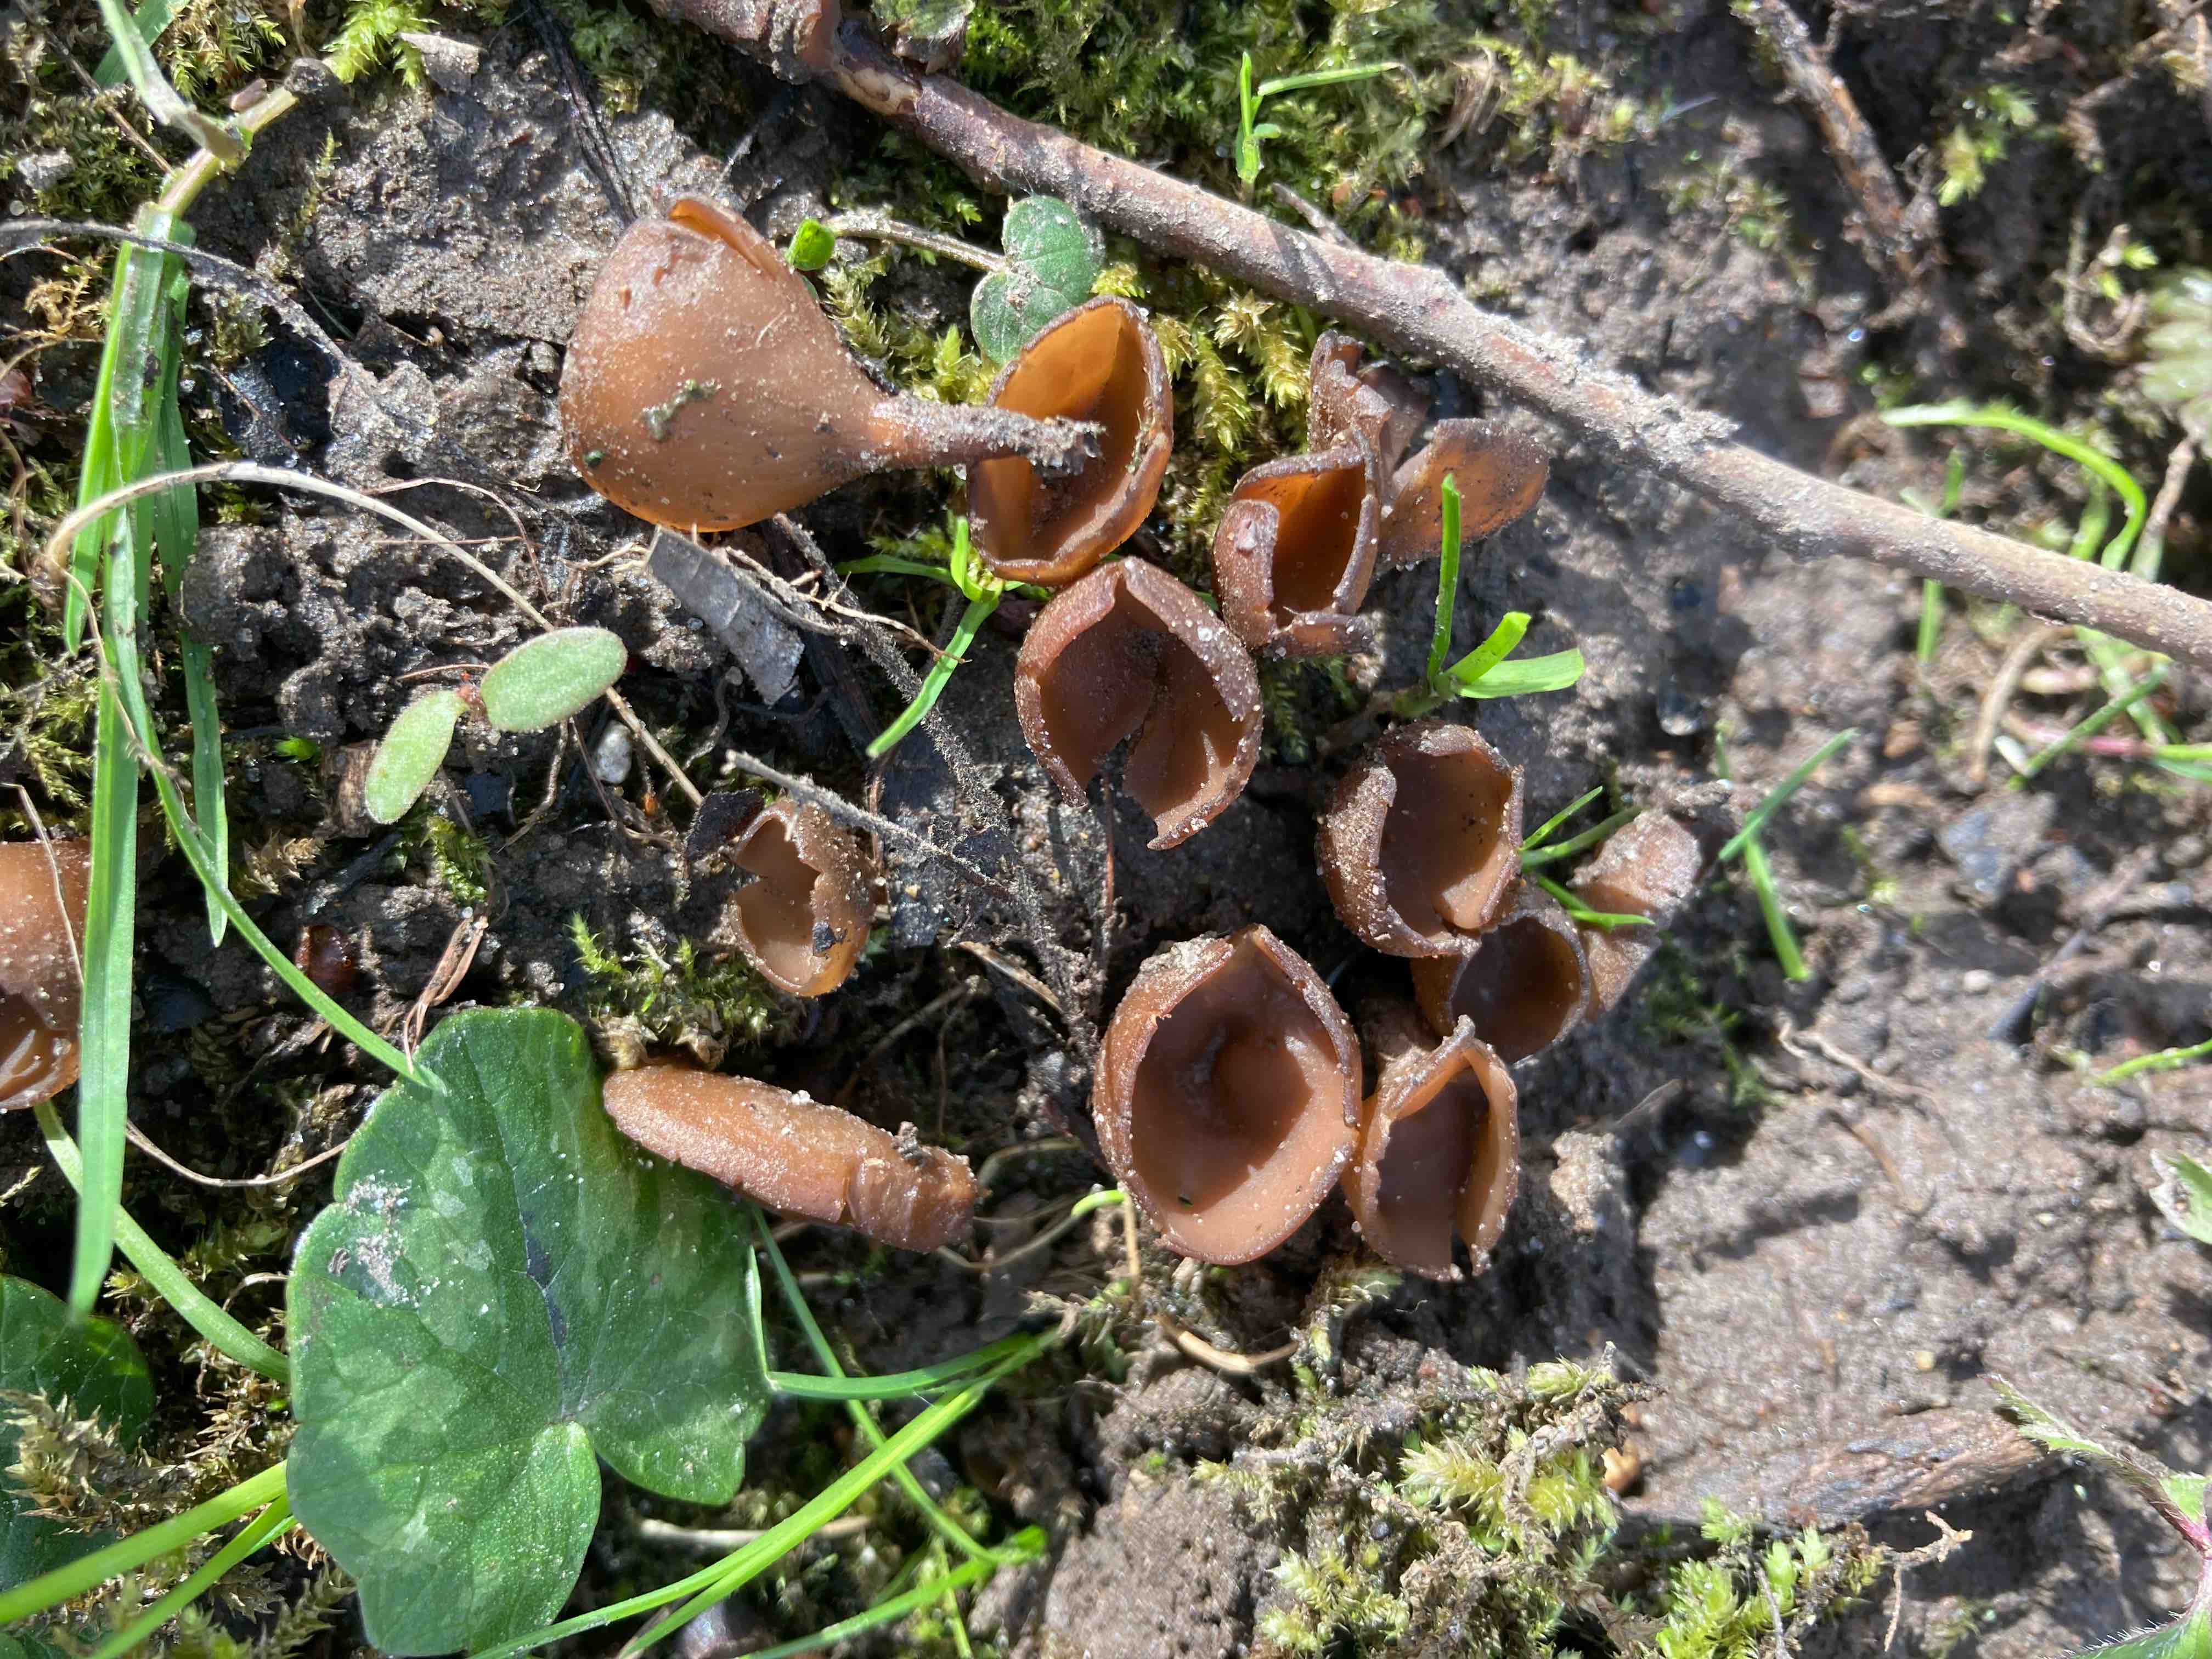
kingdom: Fungi
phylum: Ascomycota
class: Leotiomycetes
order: Helotiales
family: Sclerotiniaceae
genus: Dumontinia
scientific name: Dumontinia tuberosa
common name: anemone-knoldskive
